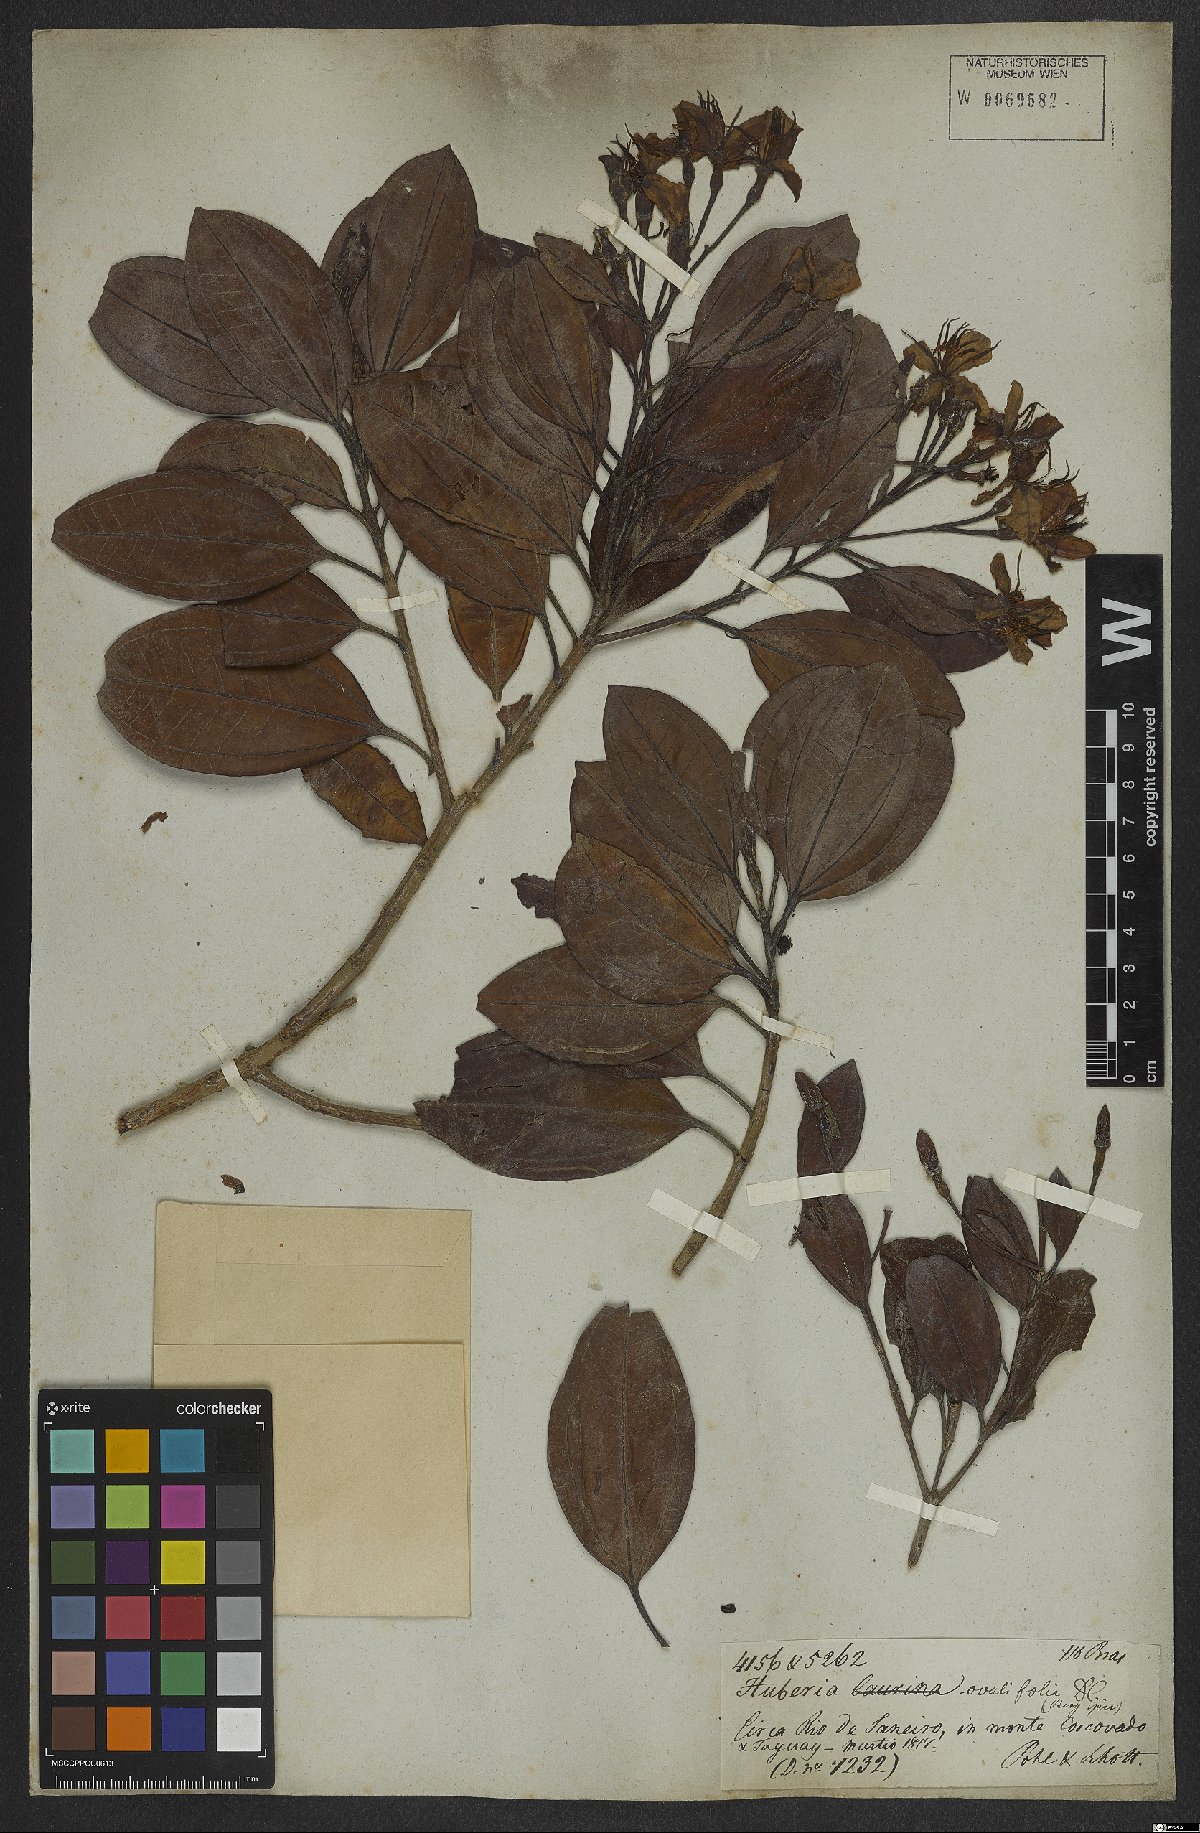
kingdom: Plantae
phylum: Tracheophyta
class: Magnoliopsida
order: Myrtales
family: Melastomataceae
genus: Huberia
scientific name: Huberia ovalifolia
